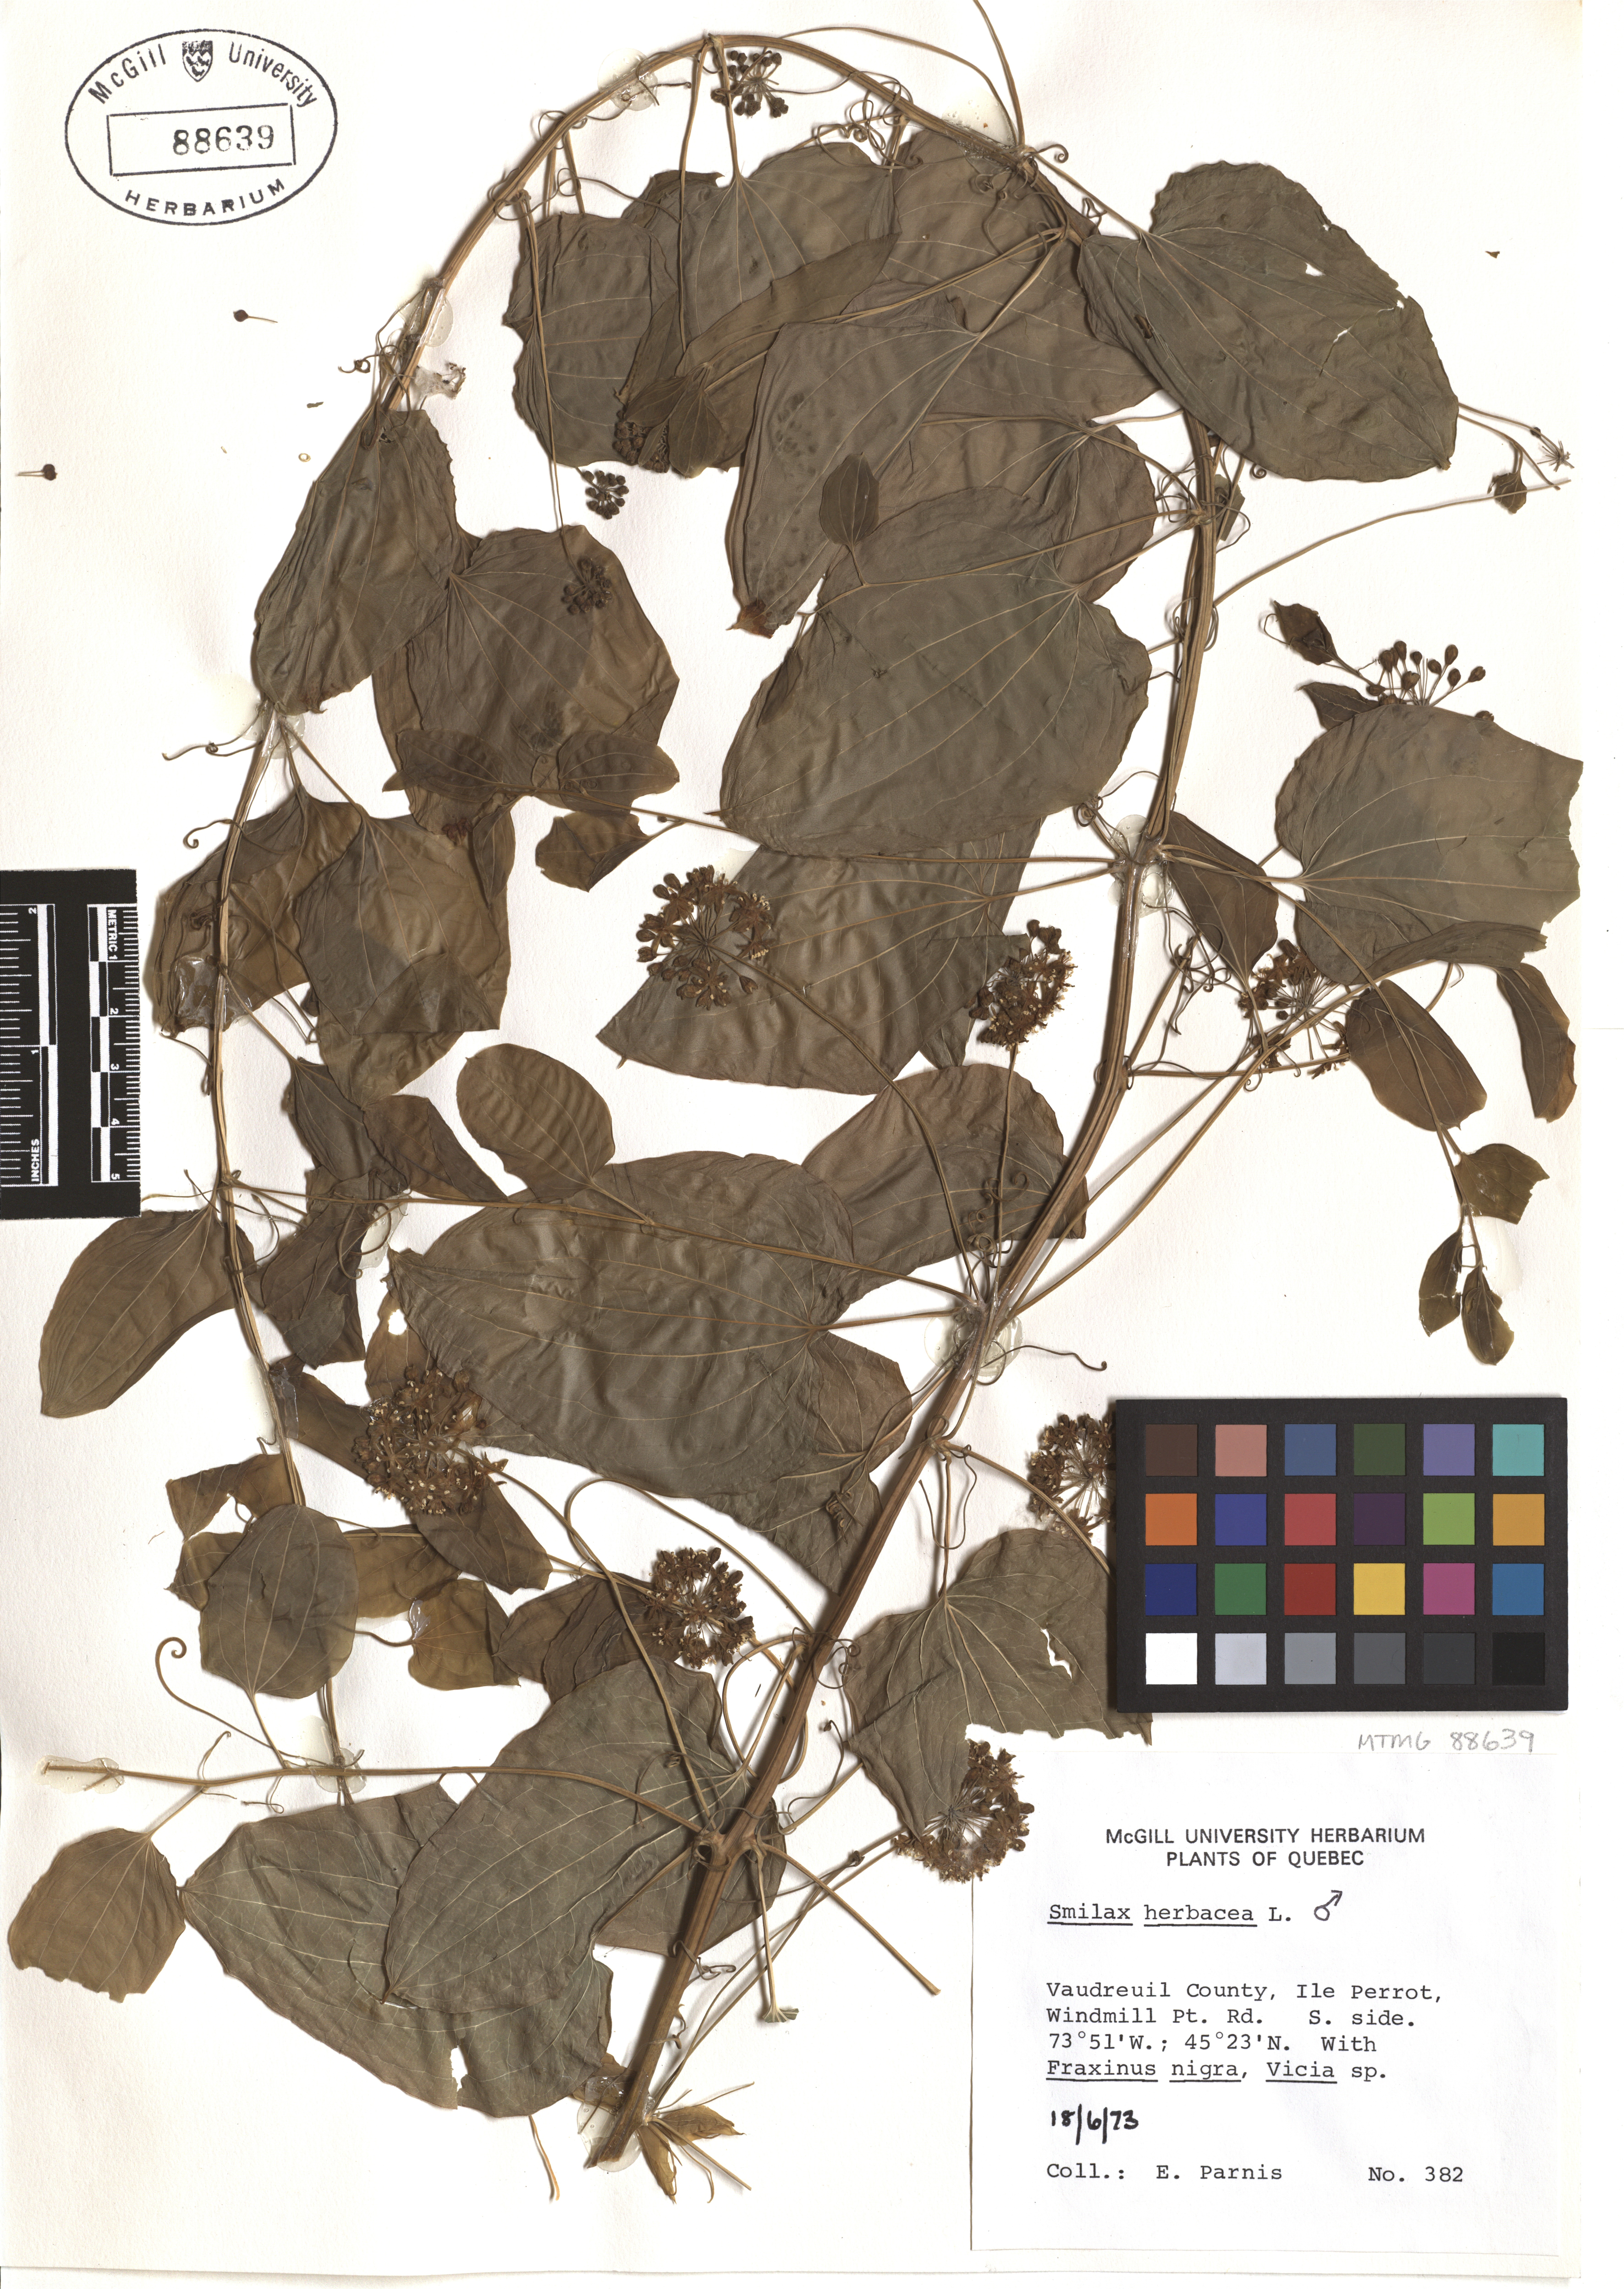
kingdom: Plantae
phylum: Tracheophyta
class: Liliopsida
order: Liliales
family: Smilacaceae
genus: Smilax
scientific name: Smilax herbacea
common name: Jacob's-ladder
